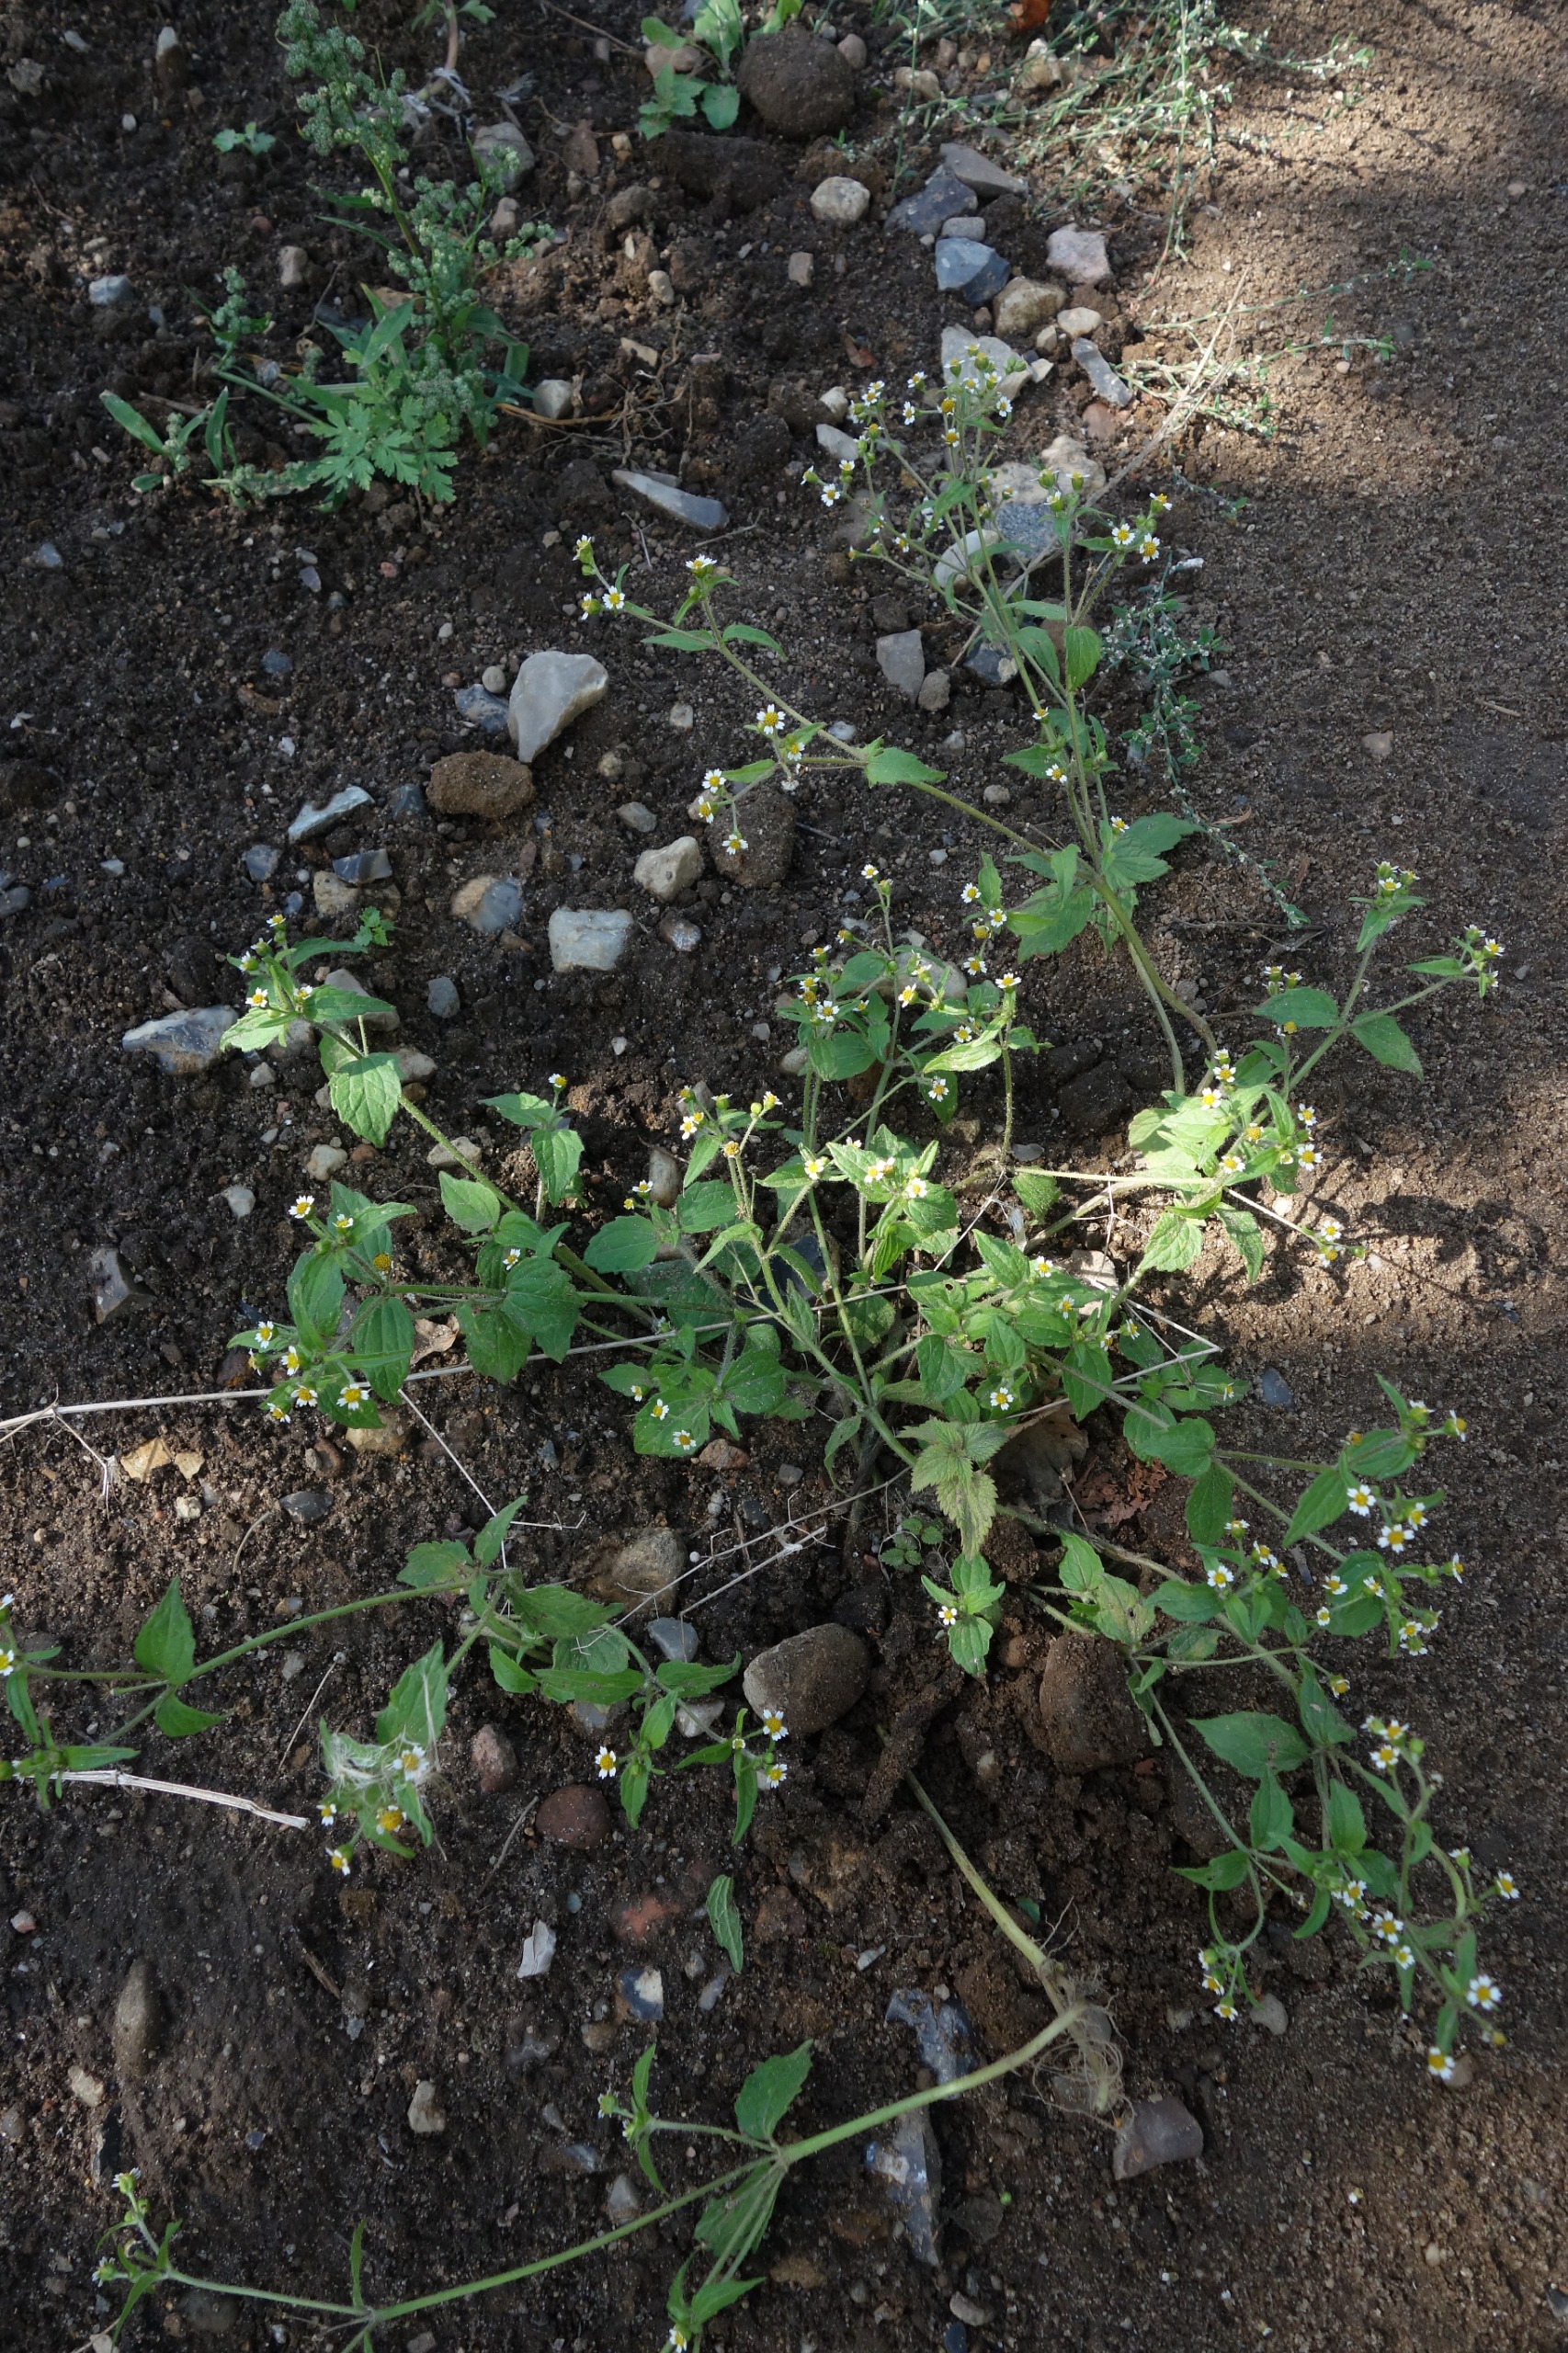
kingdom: Plantae
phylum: Tracheophyta
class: Magnoliopsida
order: Asterales
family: Asteraceae
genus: Galinsoga
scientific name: Galinsoga quadriradiata
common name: Kirtel-kortstråle
